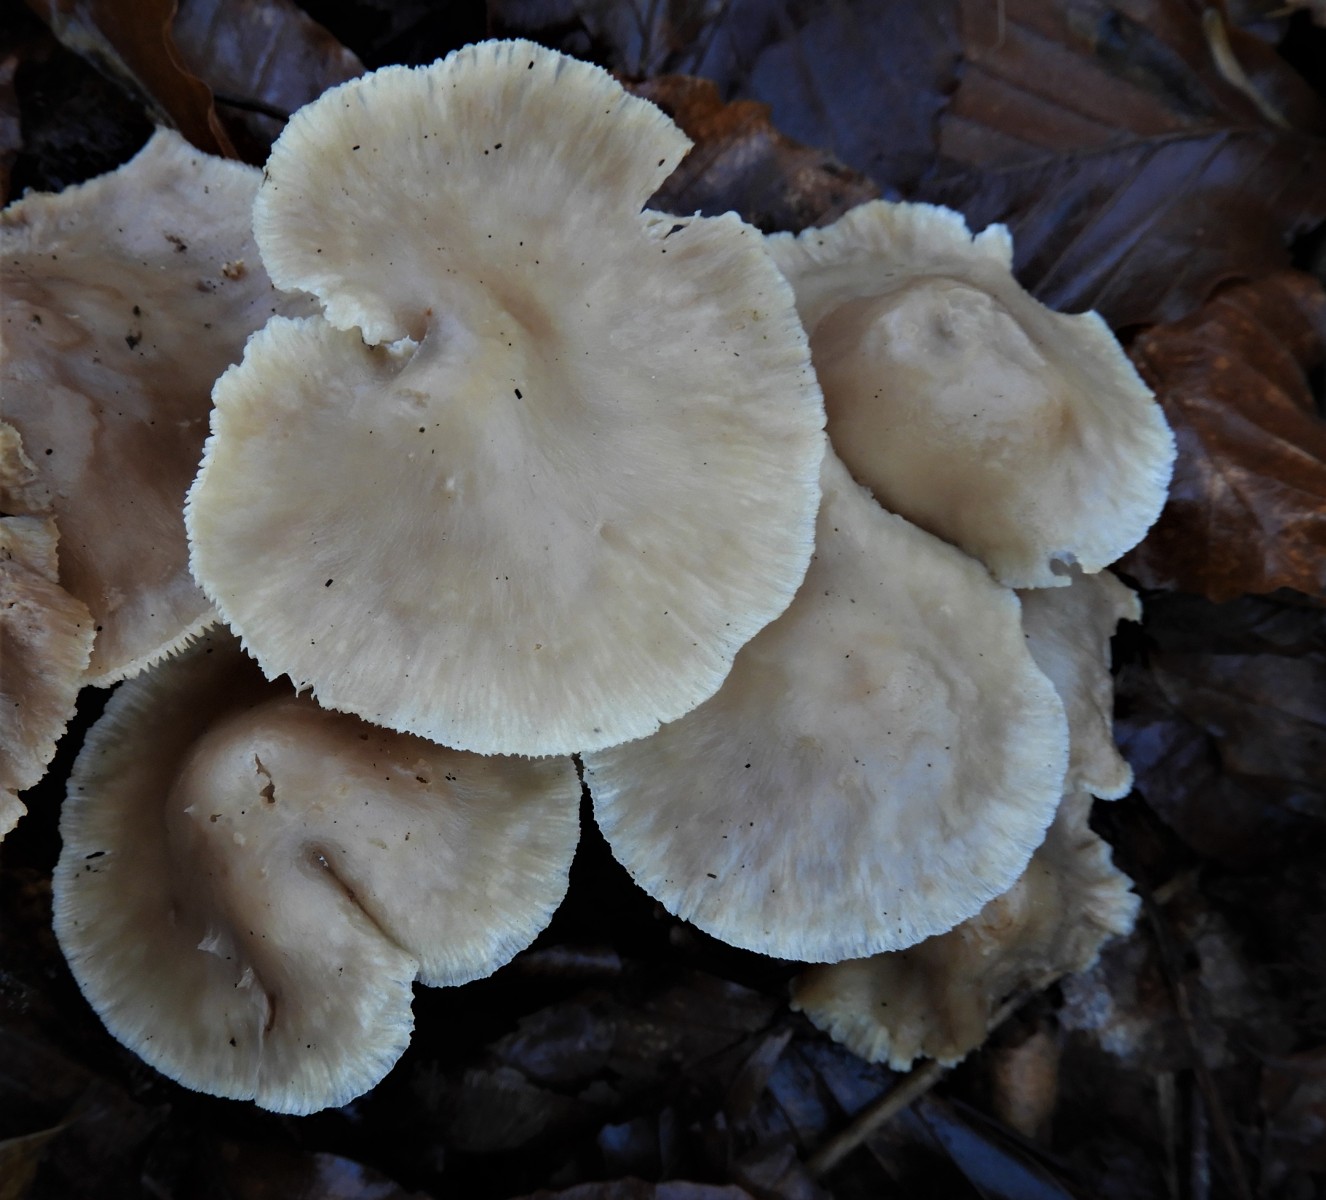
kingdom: Fungi
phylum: Basidiomycota
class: Agaricomycetes
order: Agaricales
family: Omphalotaceae
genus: Collybiopsis
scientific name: Collybiopsis confluens
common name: knippe-fladhat
